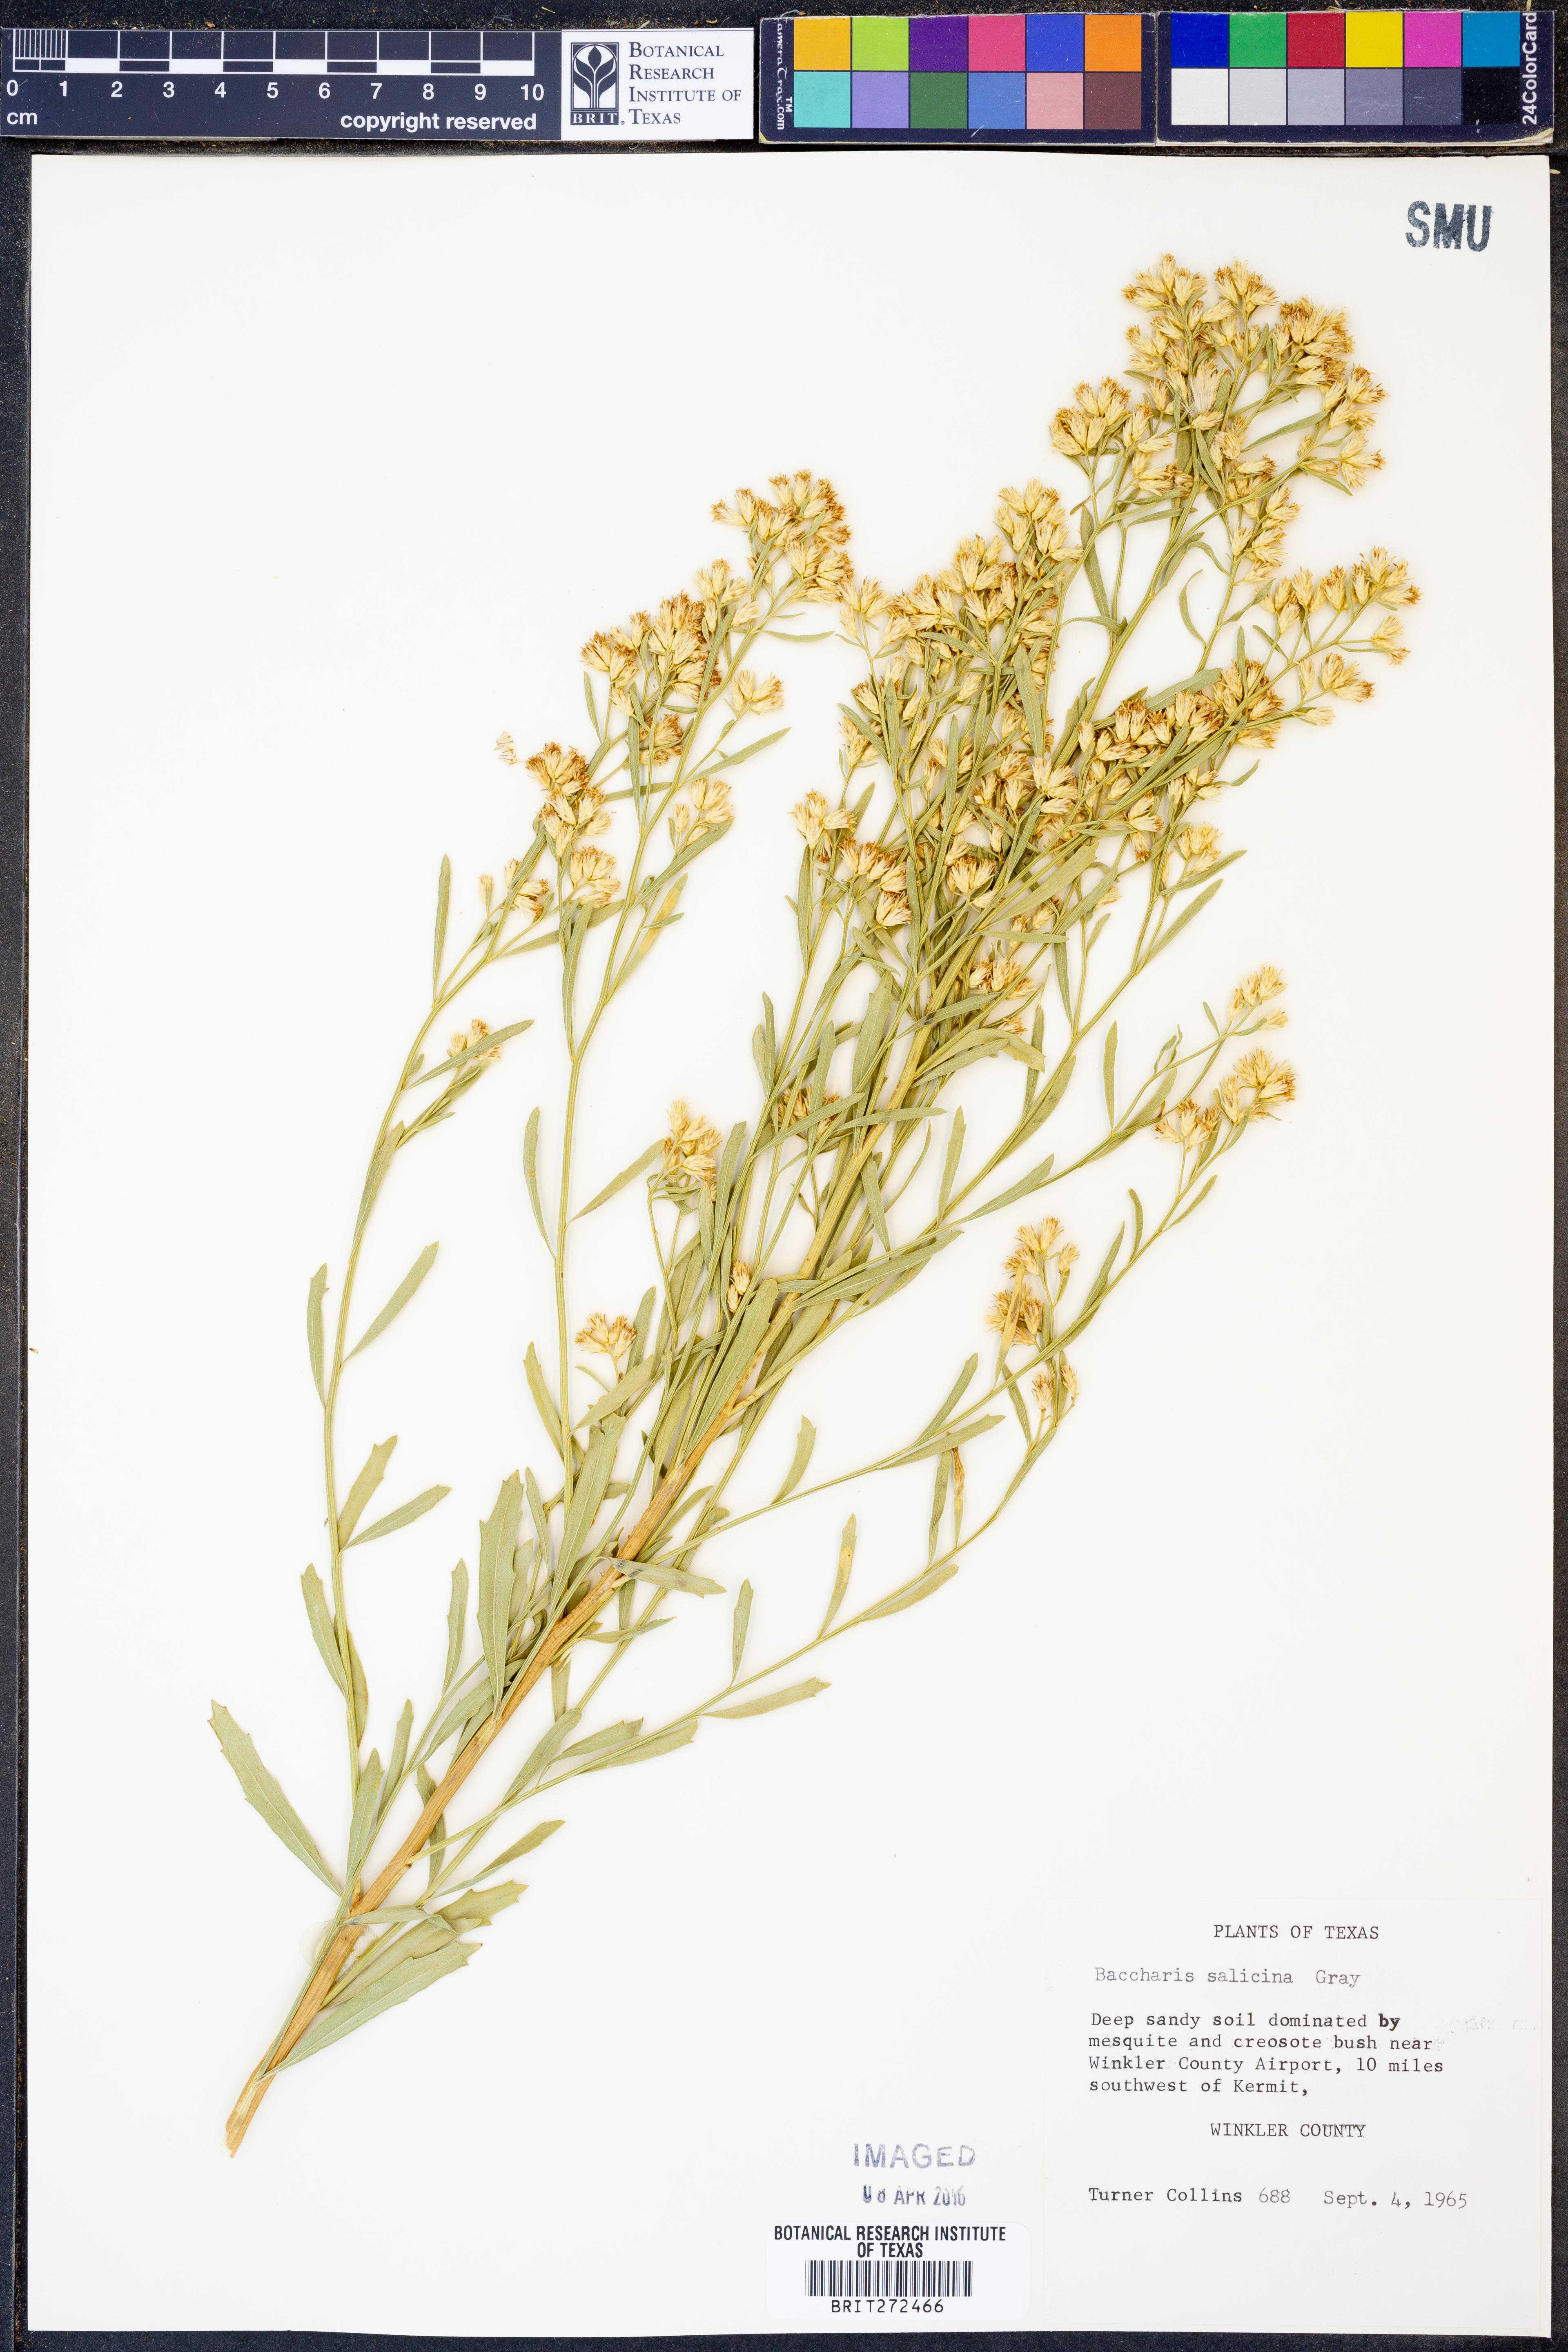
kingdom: Plantae
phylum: Tracheophyta
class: Magnoliopsida
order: Asterales
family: Asteraceae
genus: Baccharis
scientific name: Baccharis salicina
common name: Willow baccharis
